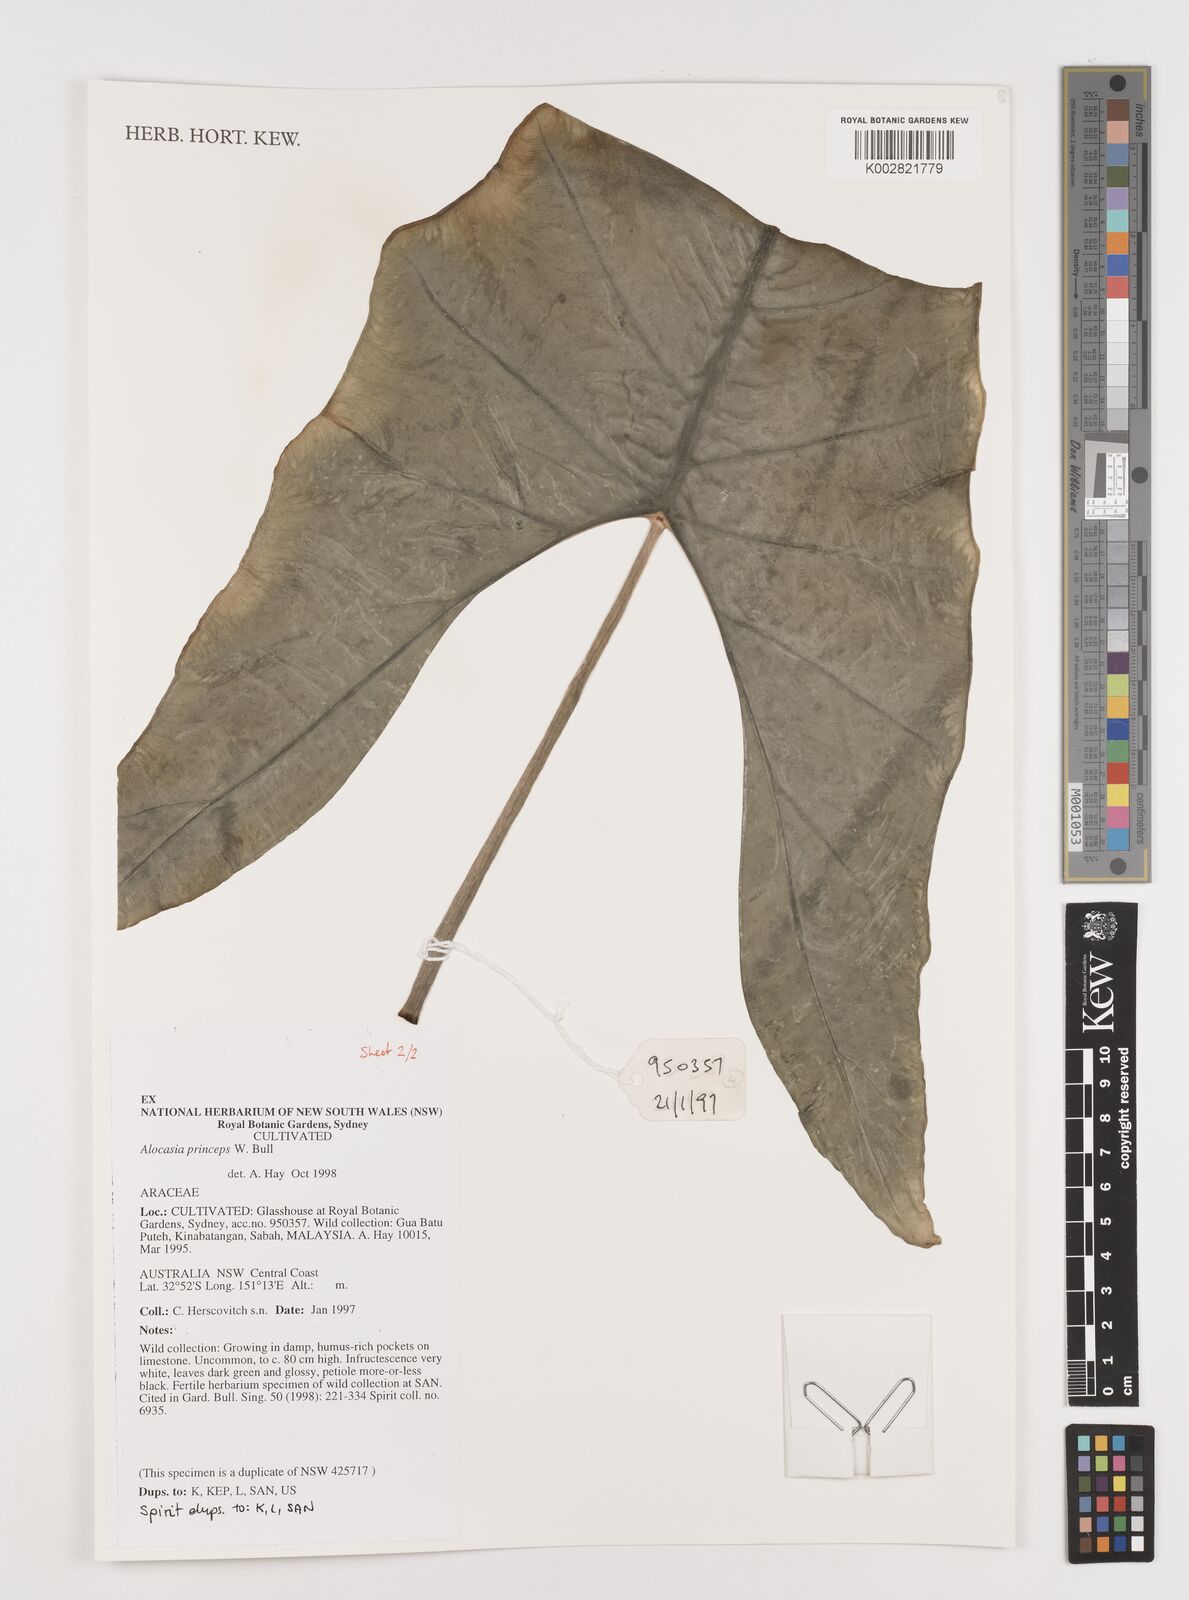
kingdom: Plantae
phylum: Tracheophyta
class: Liliopsida
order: Alismatales
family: Araceae
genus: Alocasia
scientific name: Alocasia
